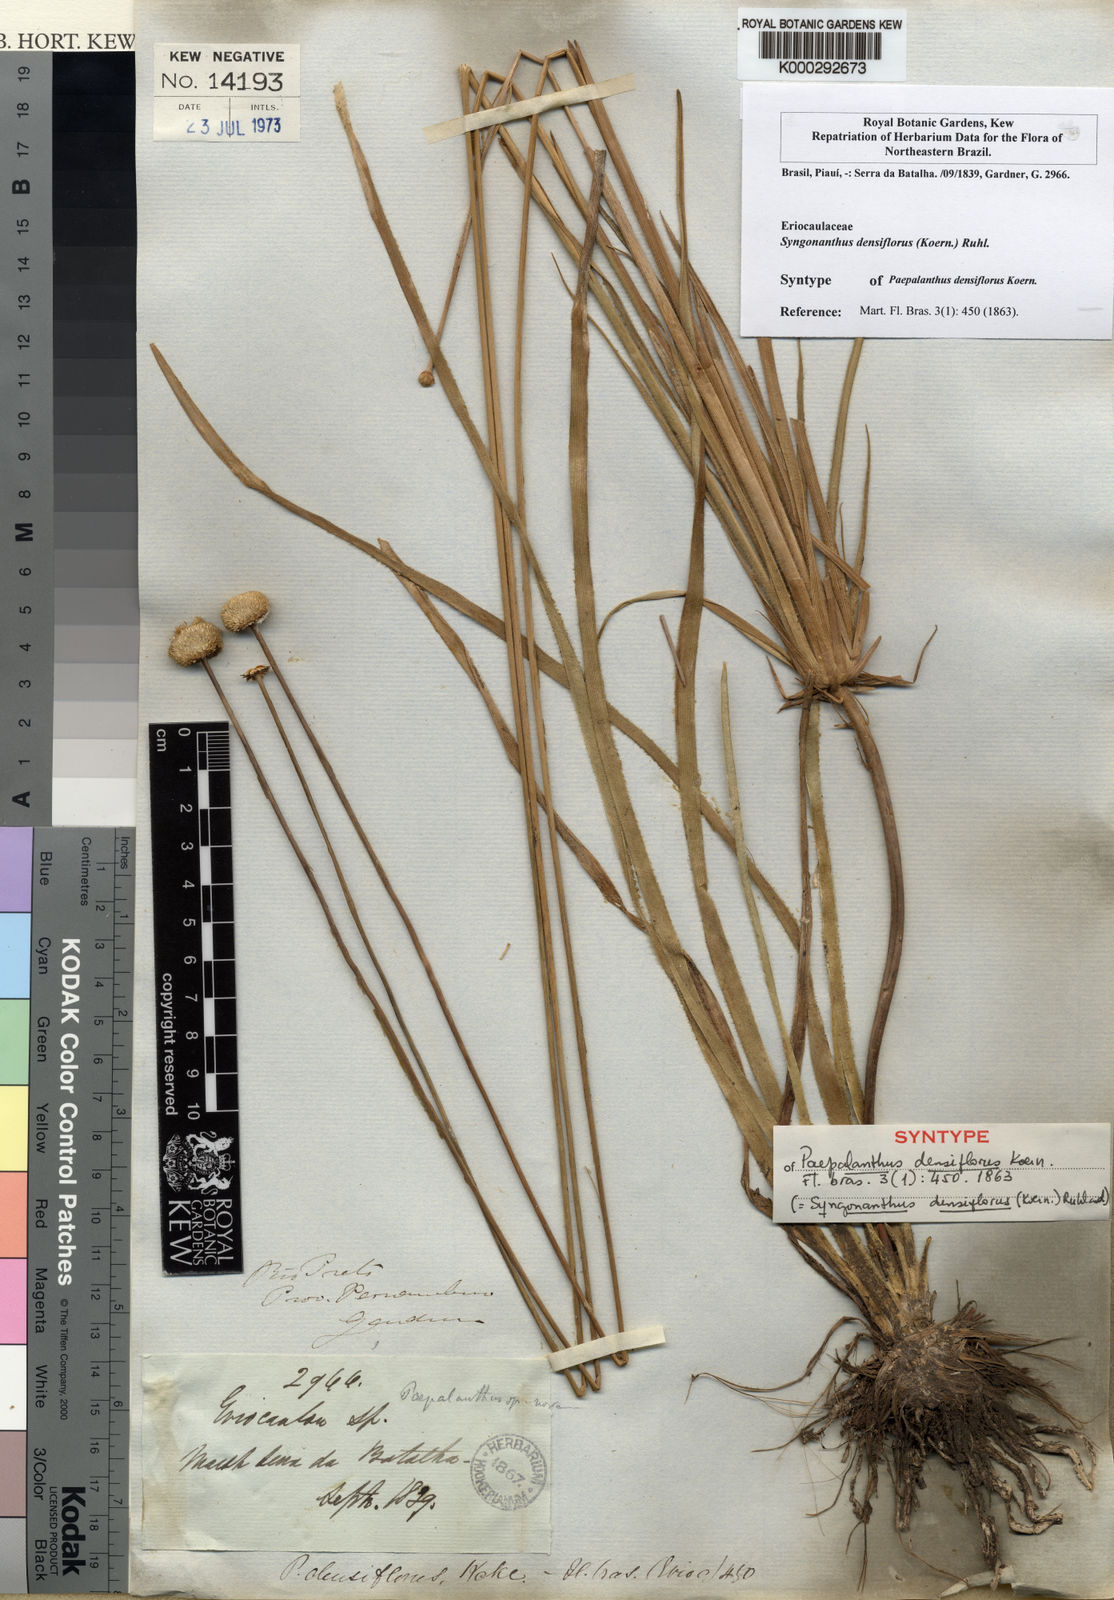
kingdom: Plantae
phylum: Tracheophyta
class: Liliopsida
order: Poales
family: Eriocaulaceae
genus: Syngonanthus
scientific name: Syngonanthus densiflorus
